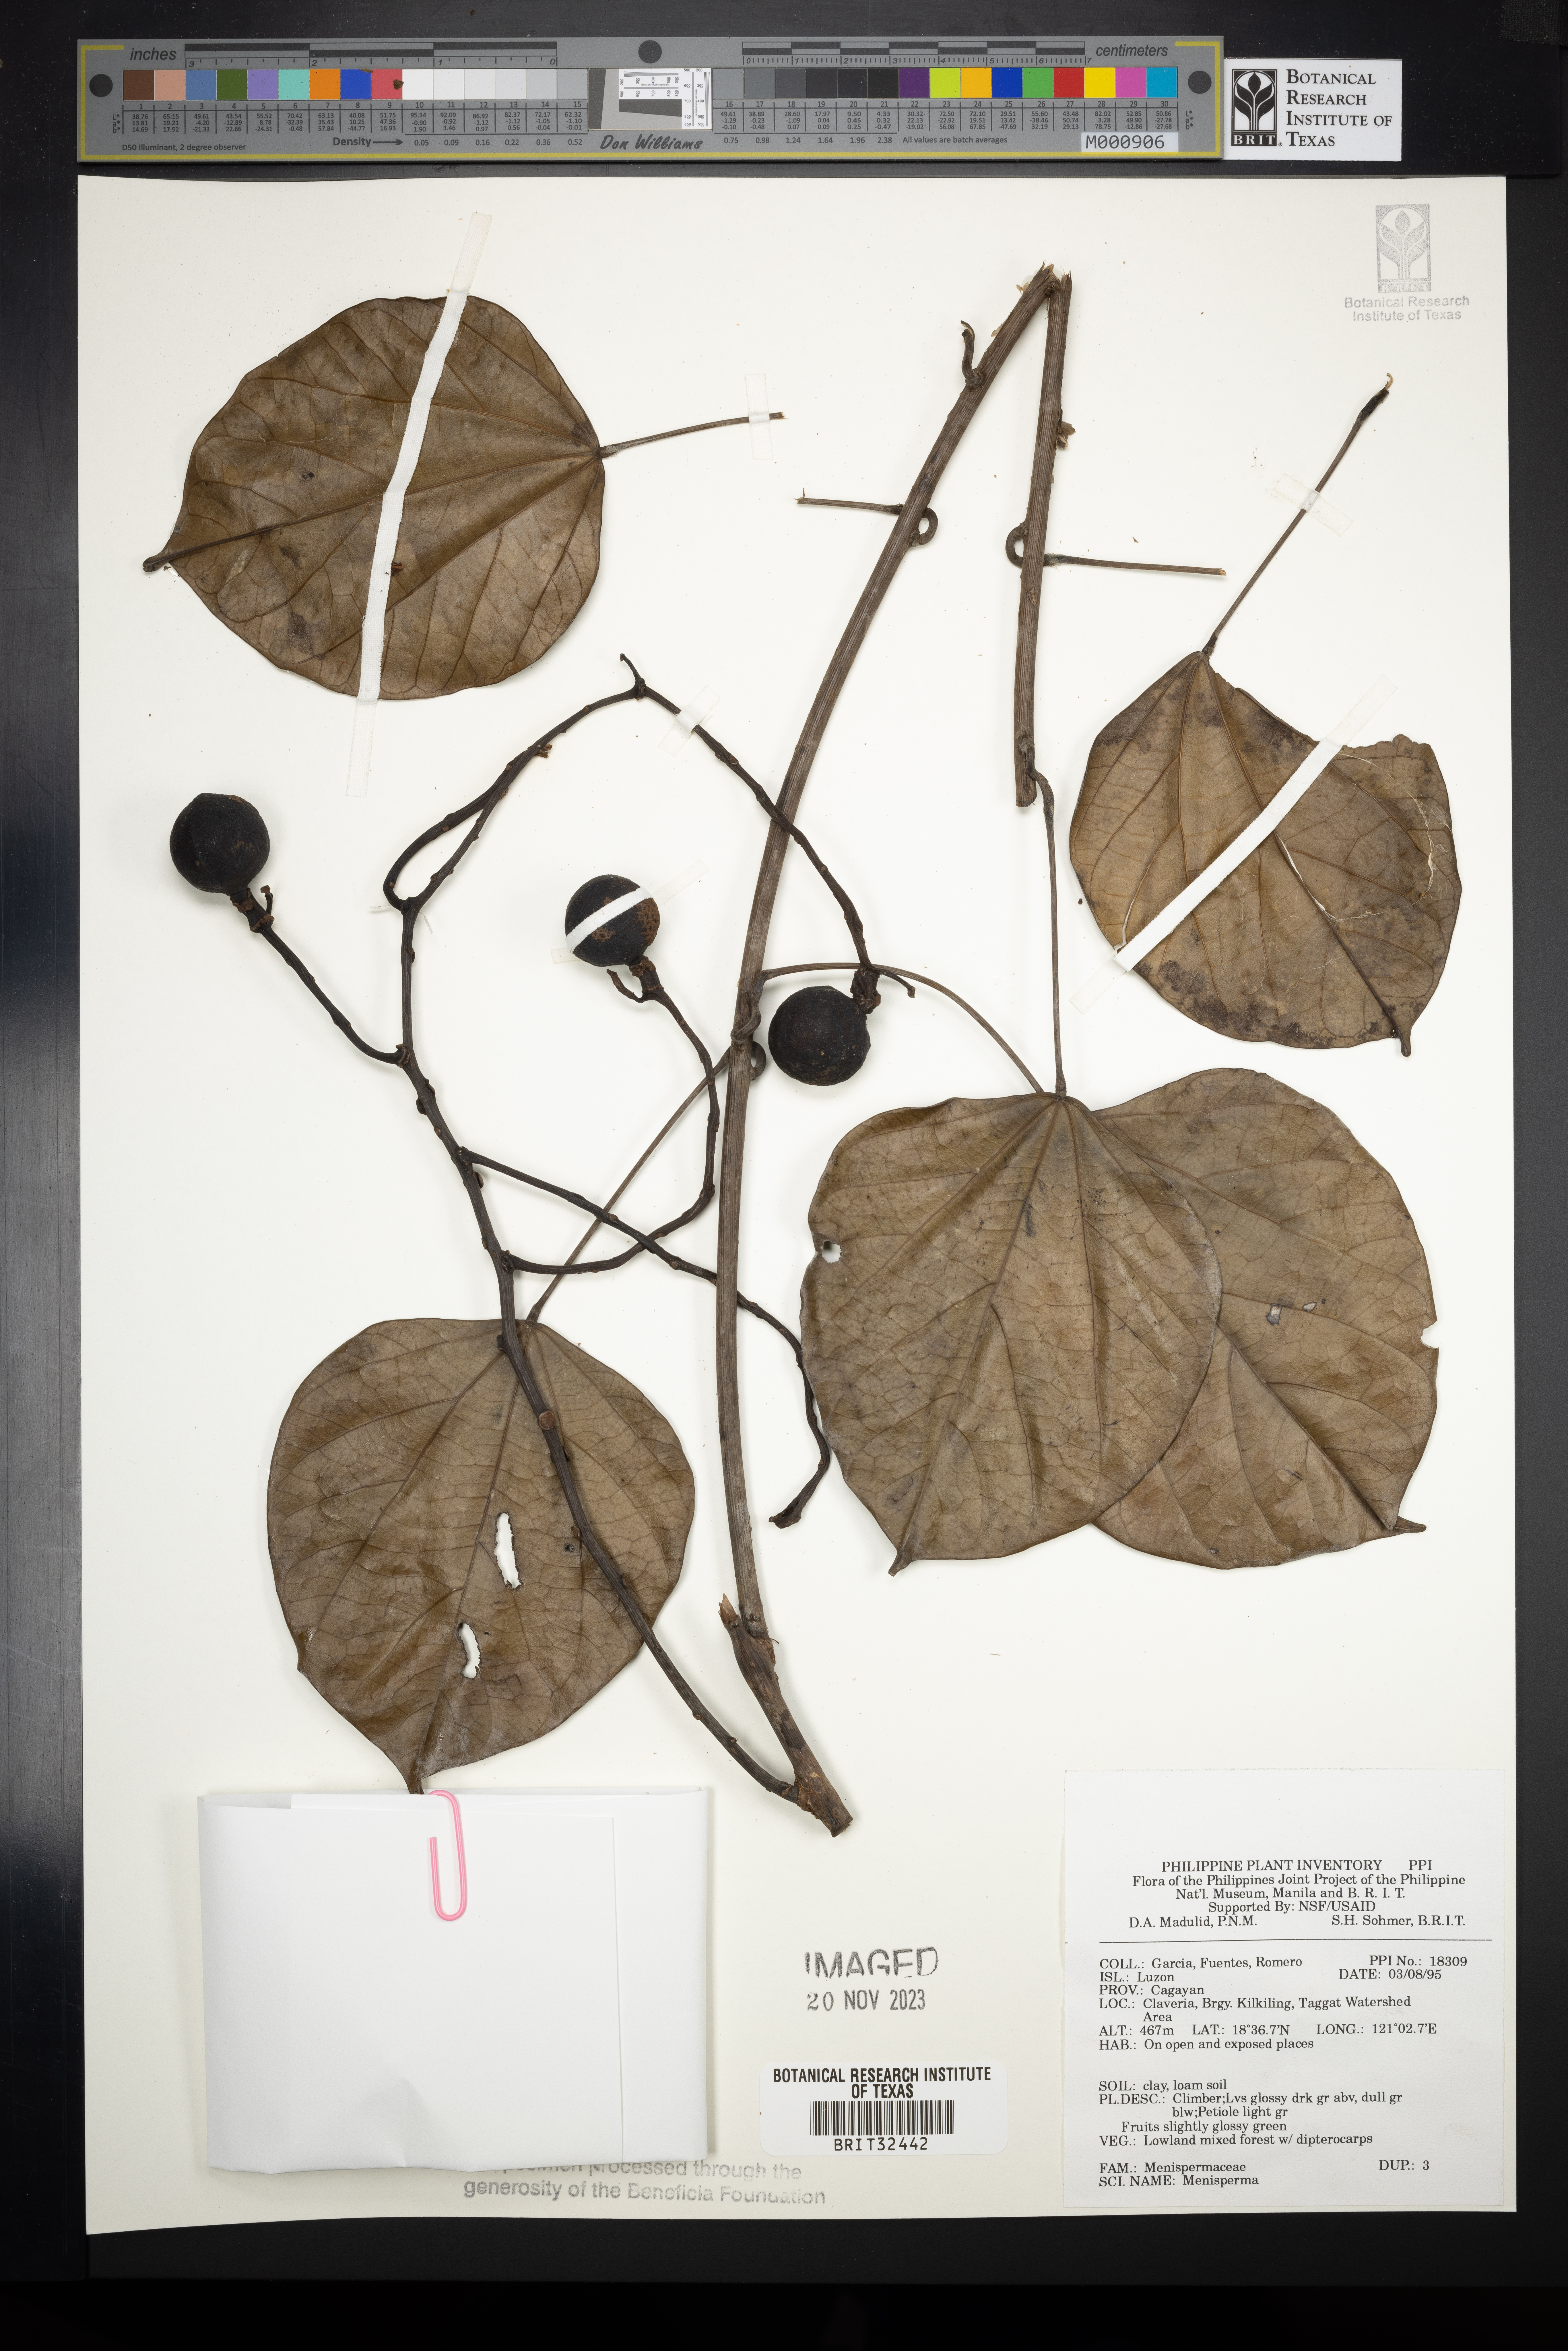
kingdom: Plantae
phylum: Tracheophyta
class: Magnoliopsida
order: Ranunculales
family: Menispermaceae
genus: Menispermum
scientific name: Menispermum
